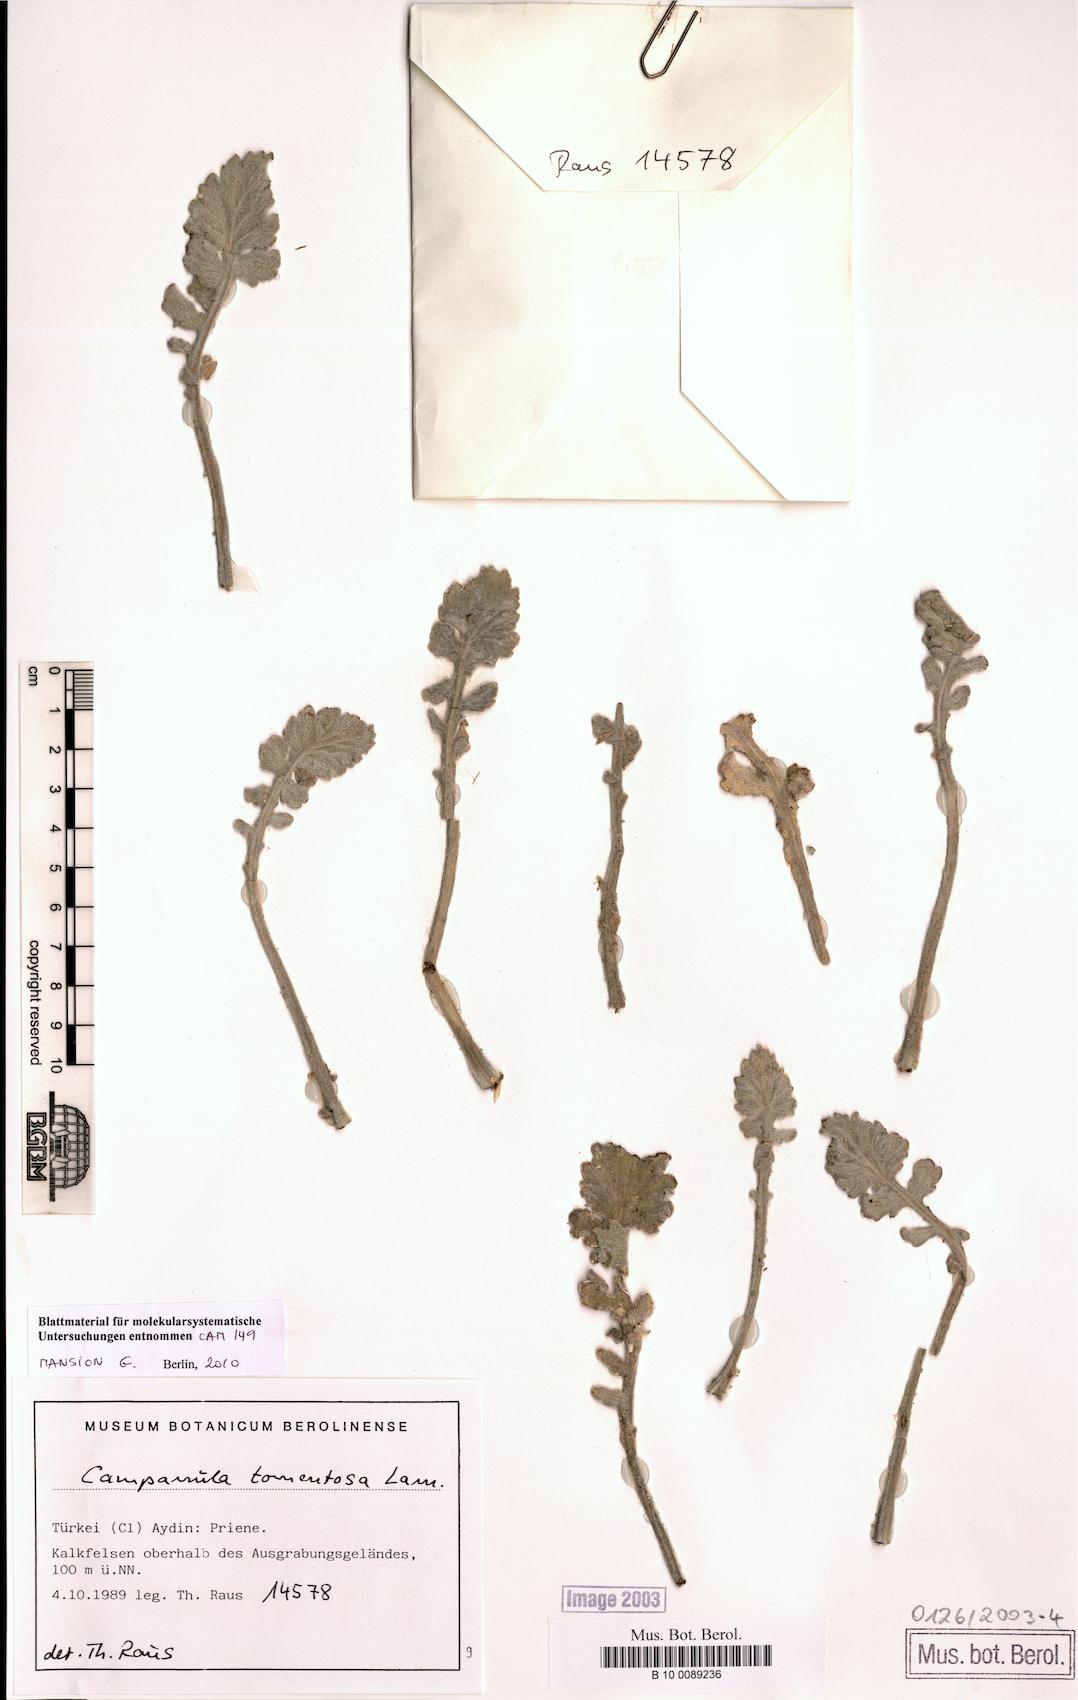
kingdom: Plantae
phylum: Tracheophyta
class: Magnoliopsida
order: Asterales
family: Campanulaceae
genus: Campanula
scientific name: Campanula tomentosa
